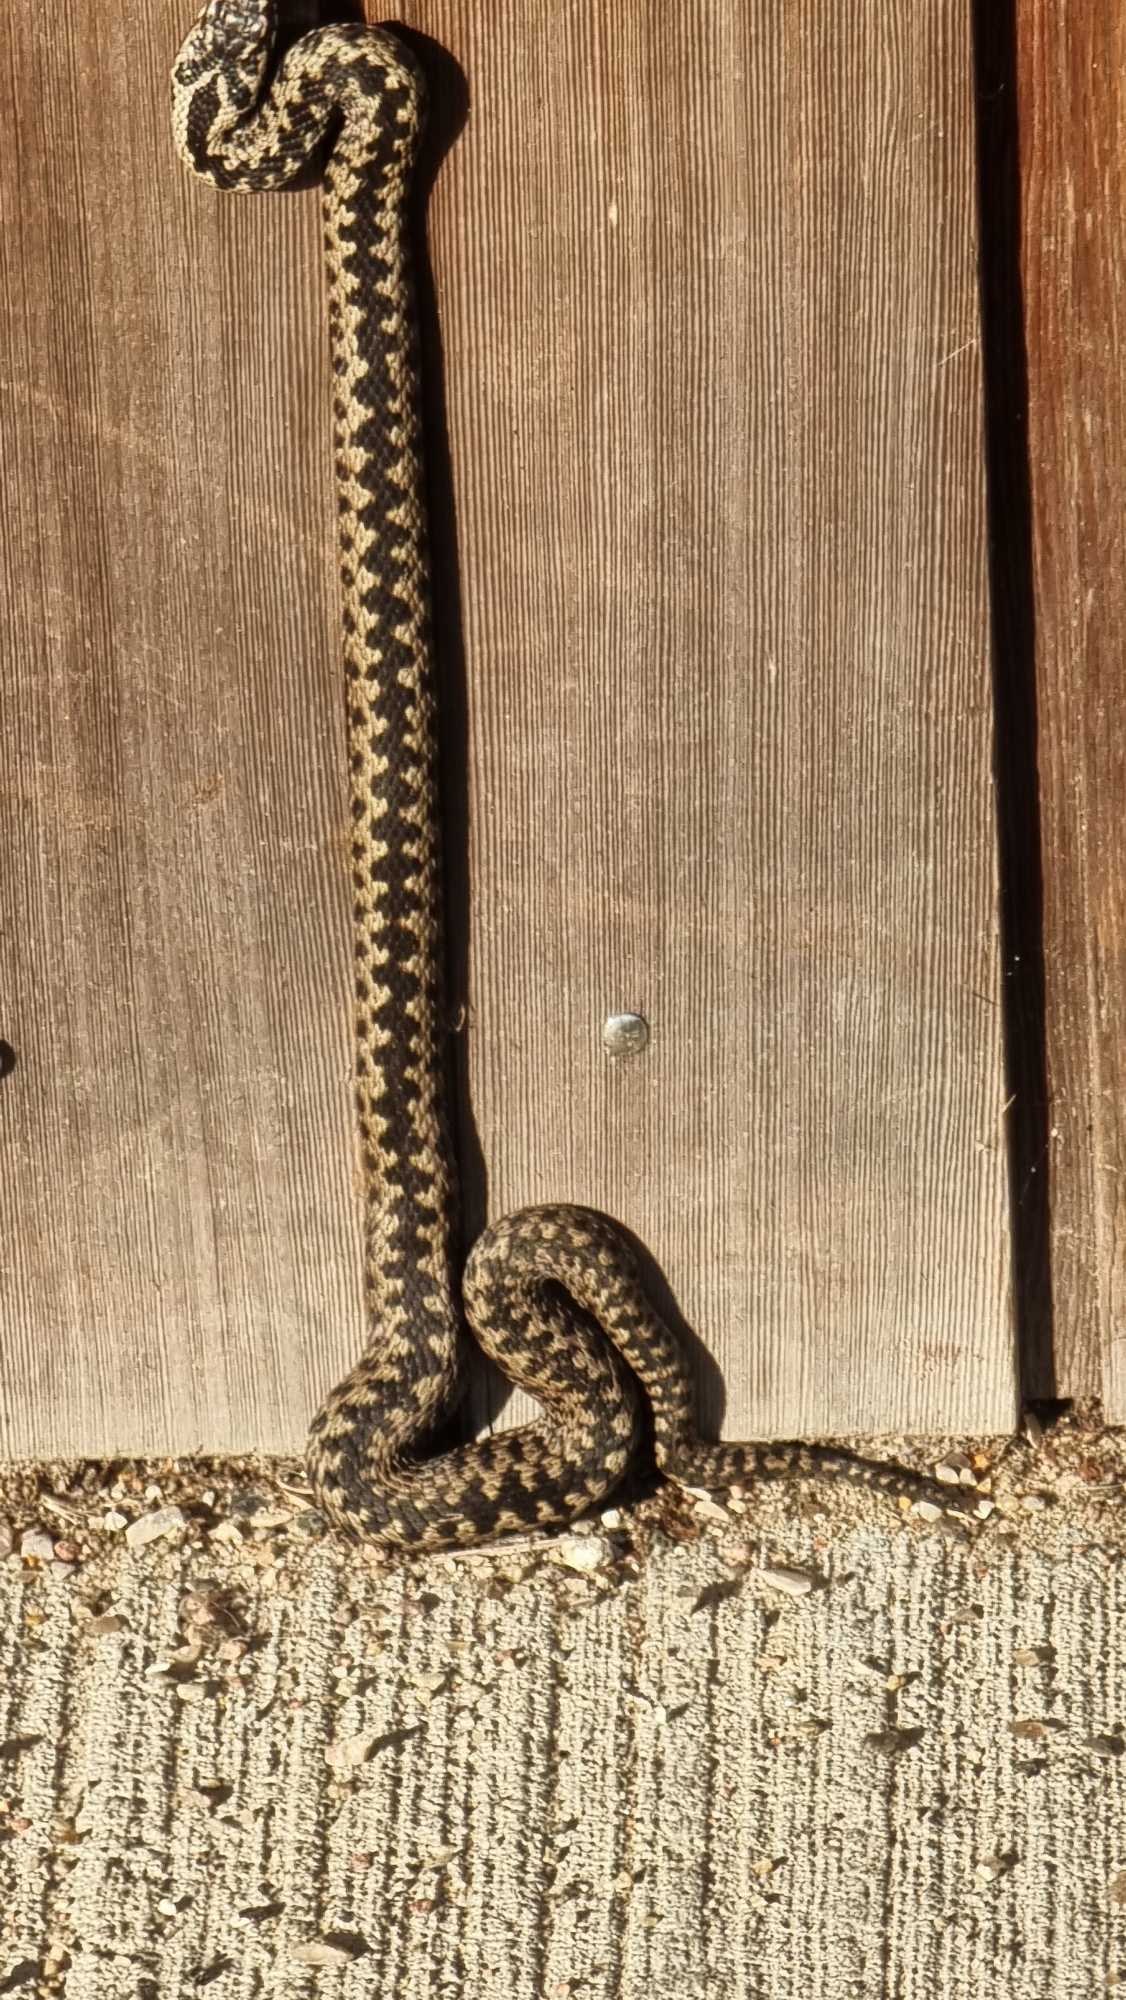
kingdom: Animalia
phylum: Chordata
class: Squamata
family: Viperidae
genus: Vipera
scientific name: Vipera berus
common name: Hugorm
